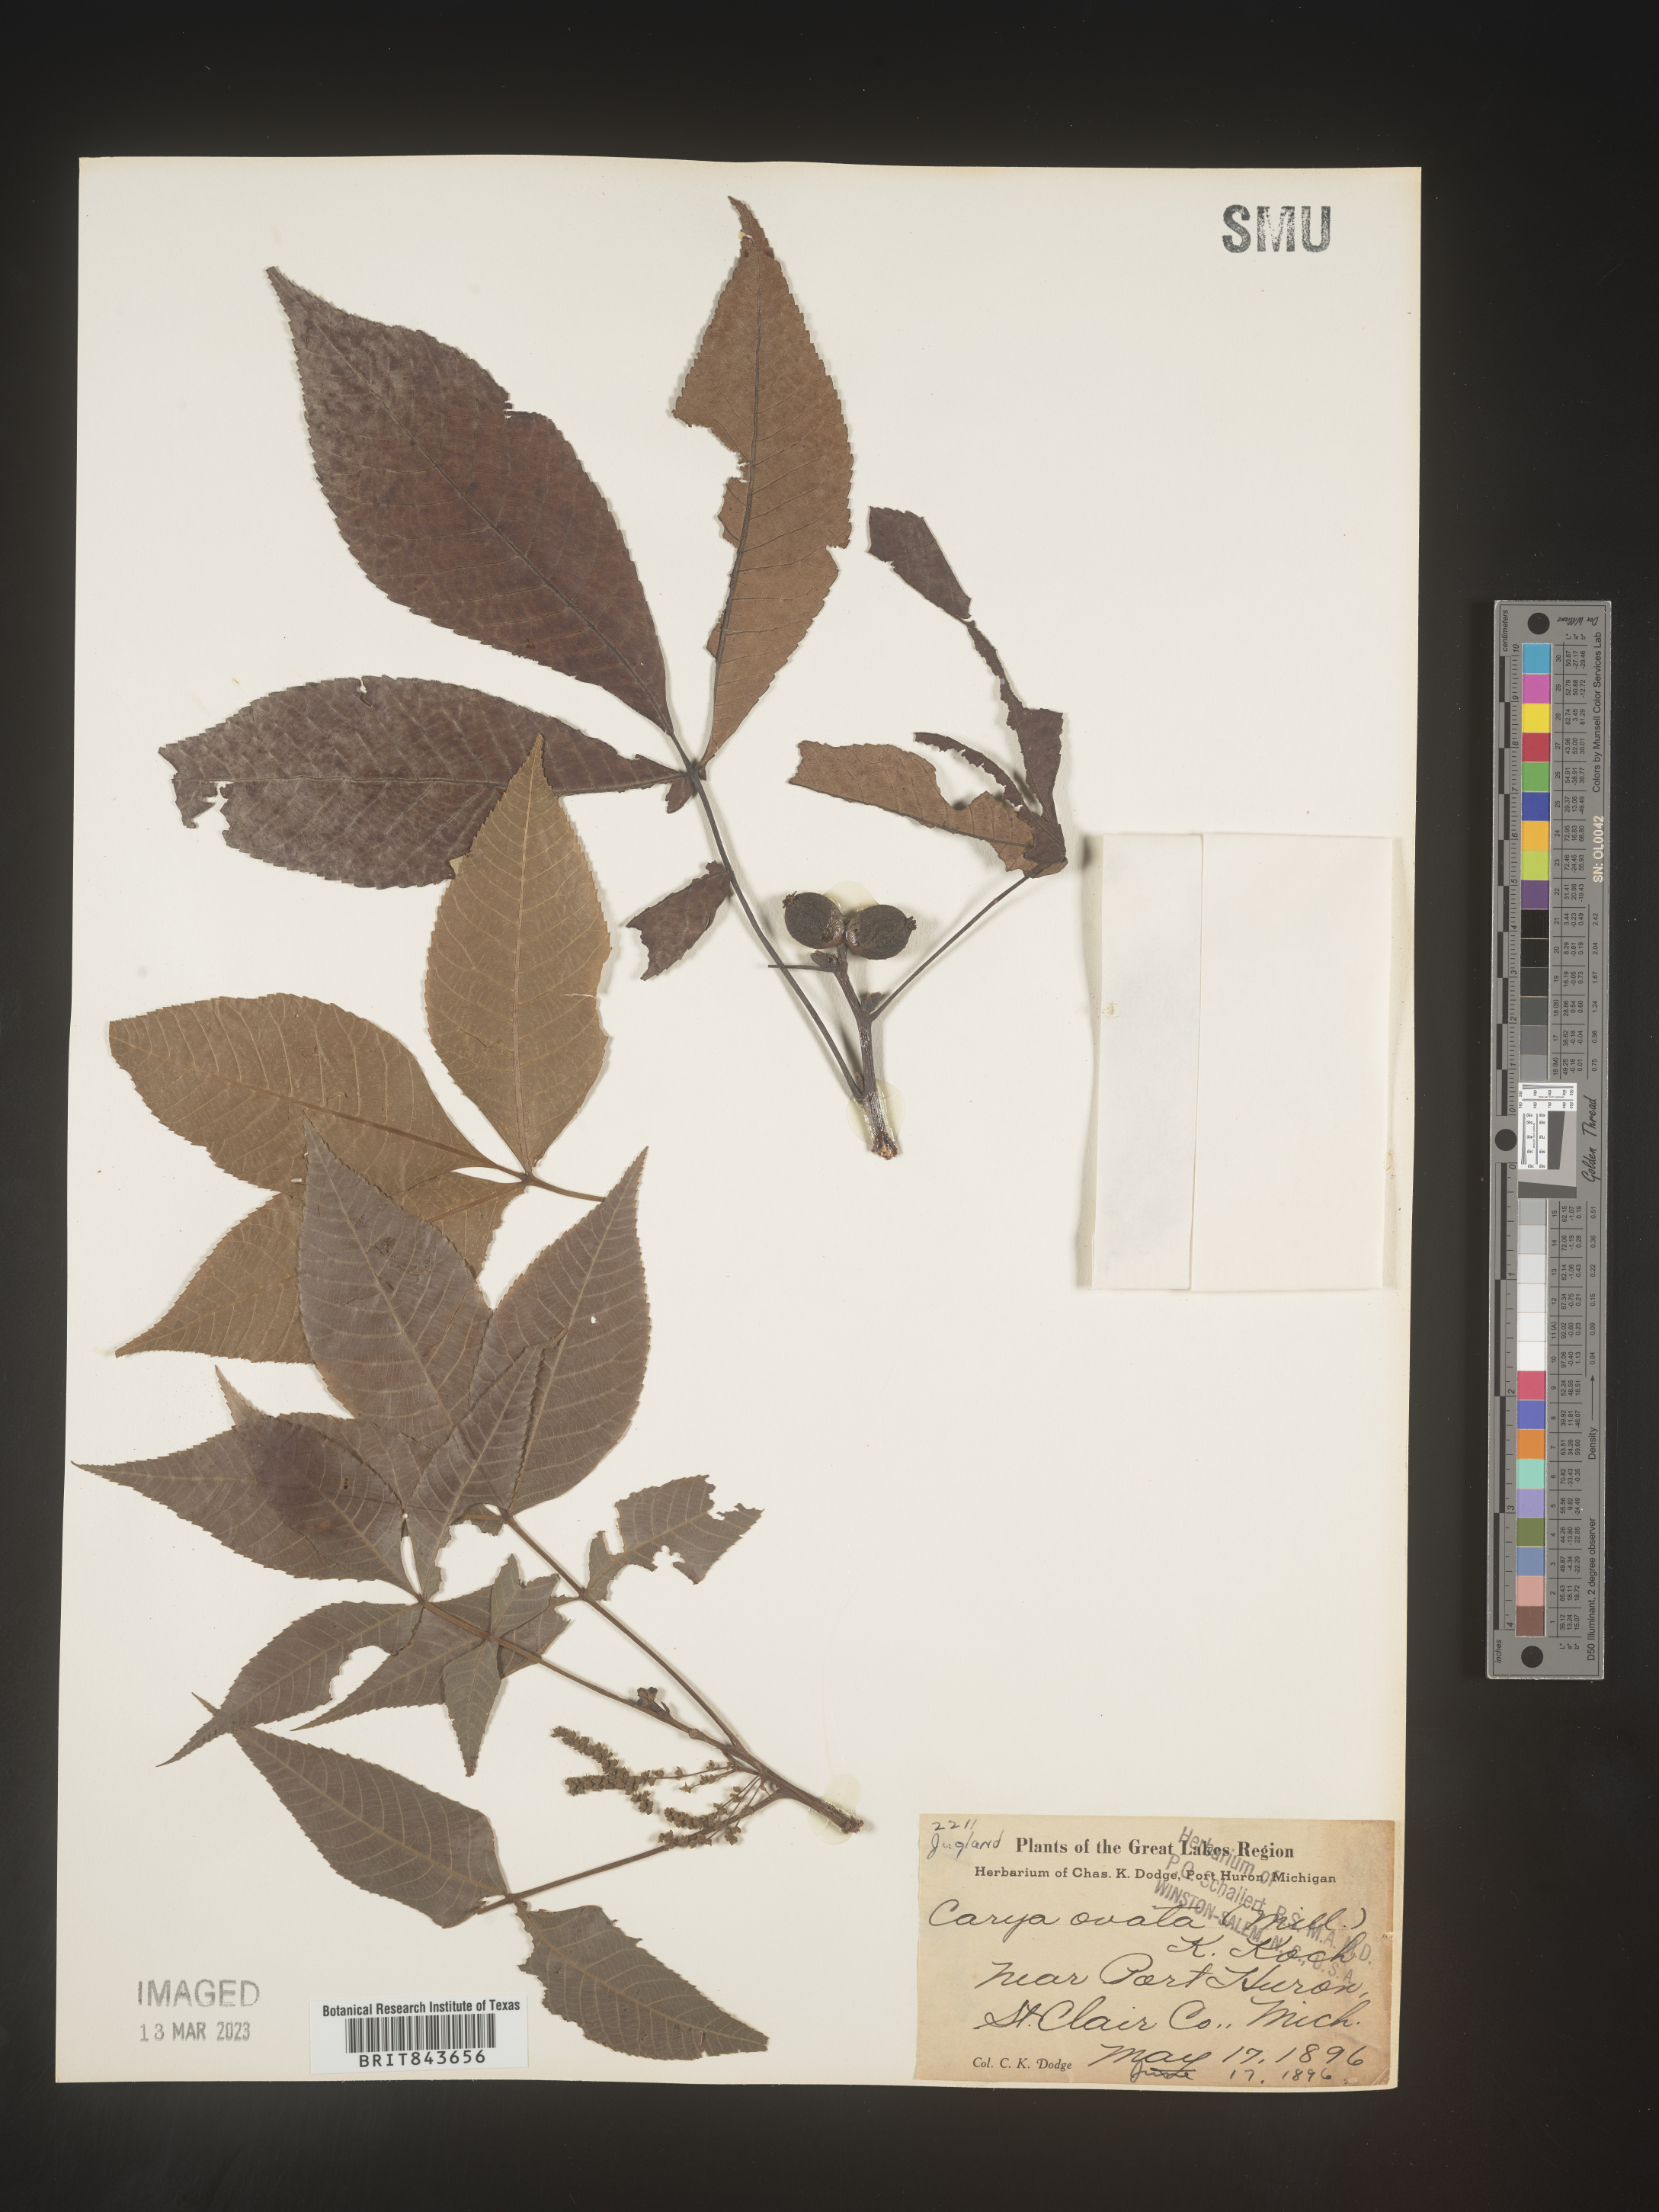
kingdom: Plantae
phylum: Tracheophyta
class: Magnoliopsida
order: Fagales
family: Juglandaceae
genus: Carya
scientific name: Carya ovata
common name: Shagbark hickory
